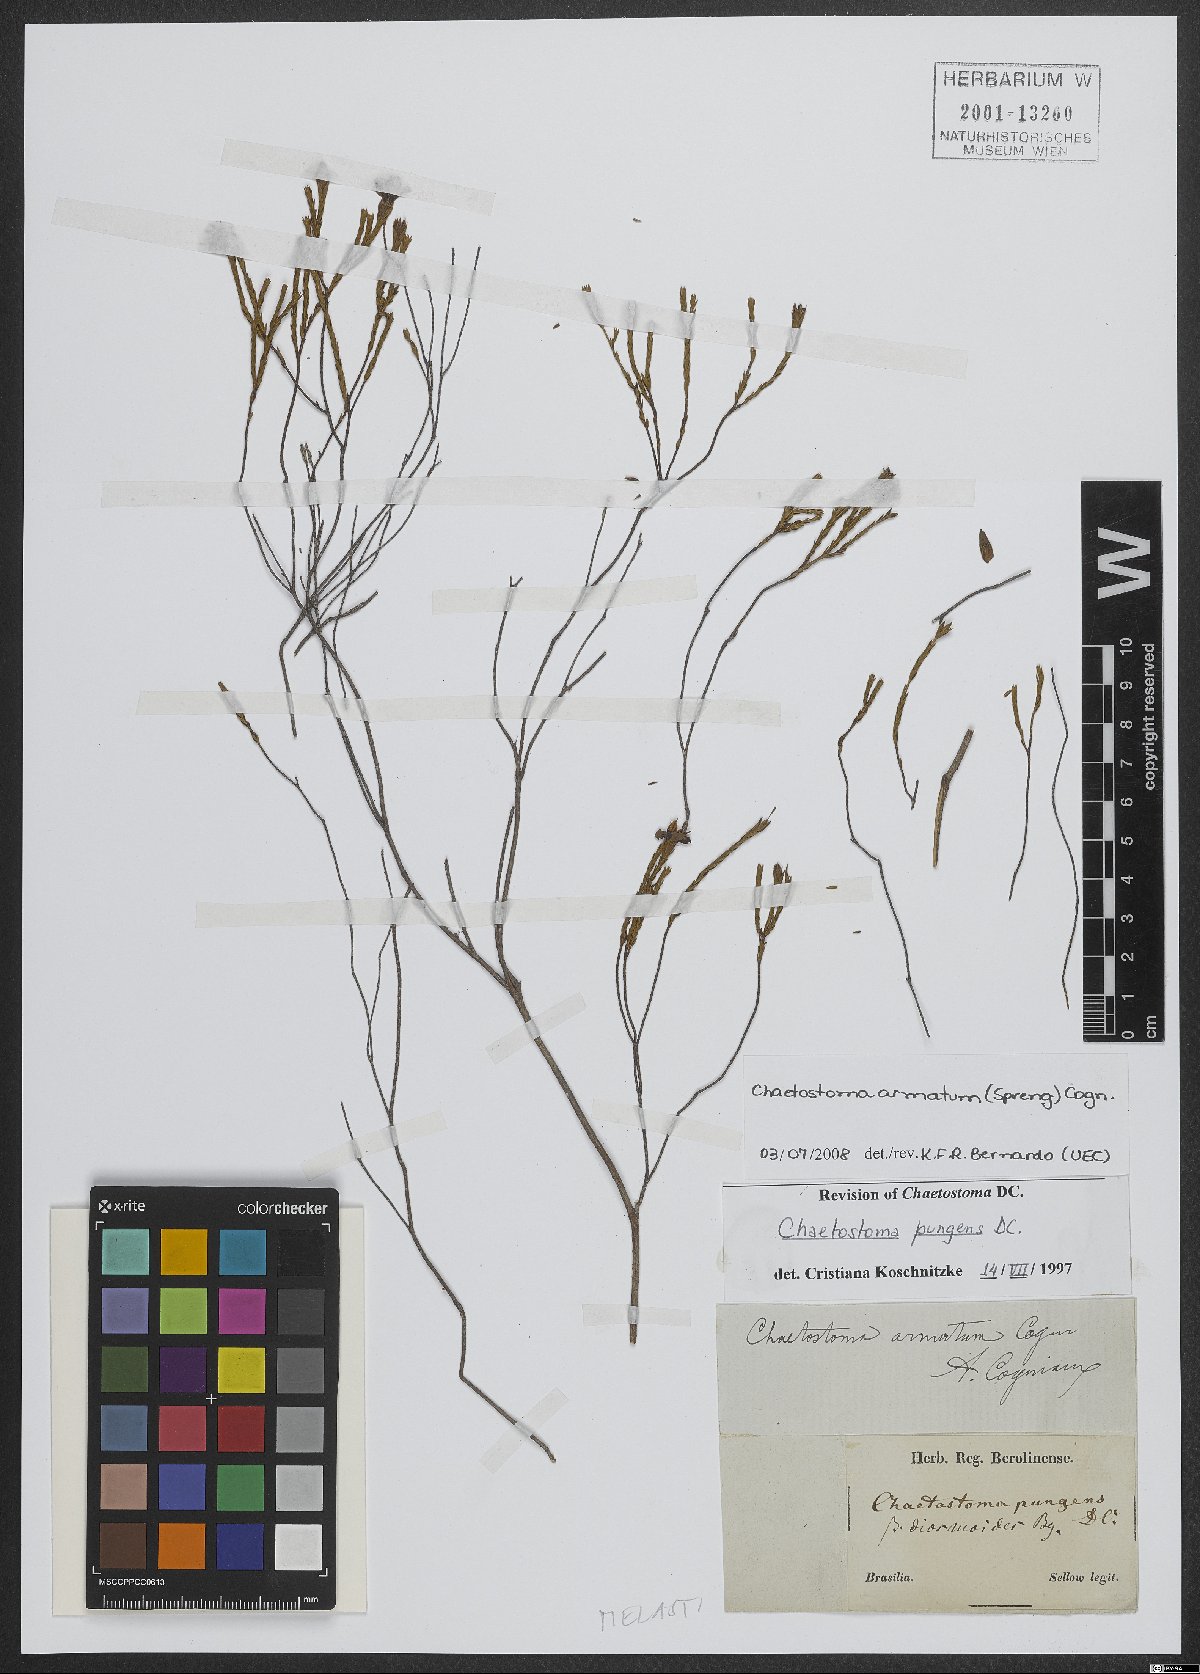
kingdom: Plantae
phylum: Tracheophyta
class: Magnoliopsida
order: Myrtales
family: Melastomataceae
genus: Microlicia
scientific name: Microlicia armata
